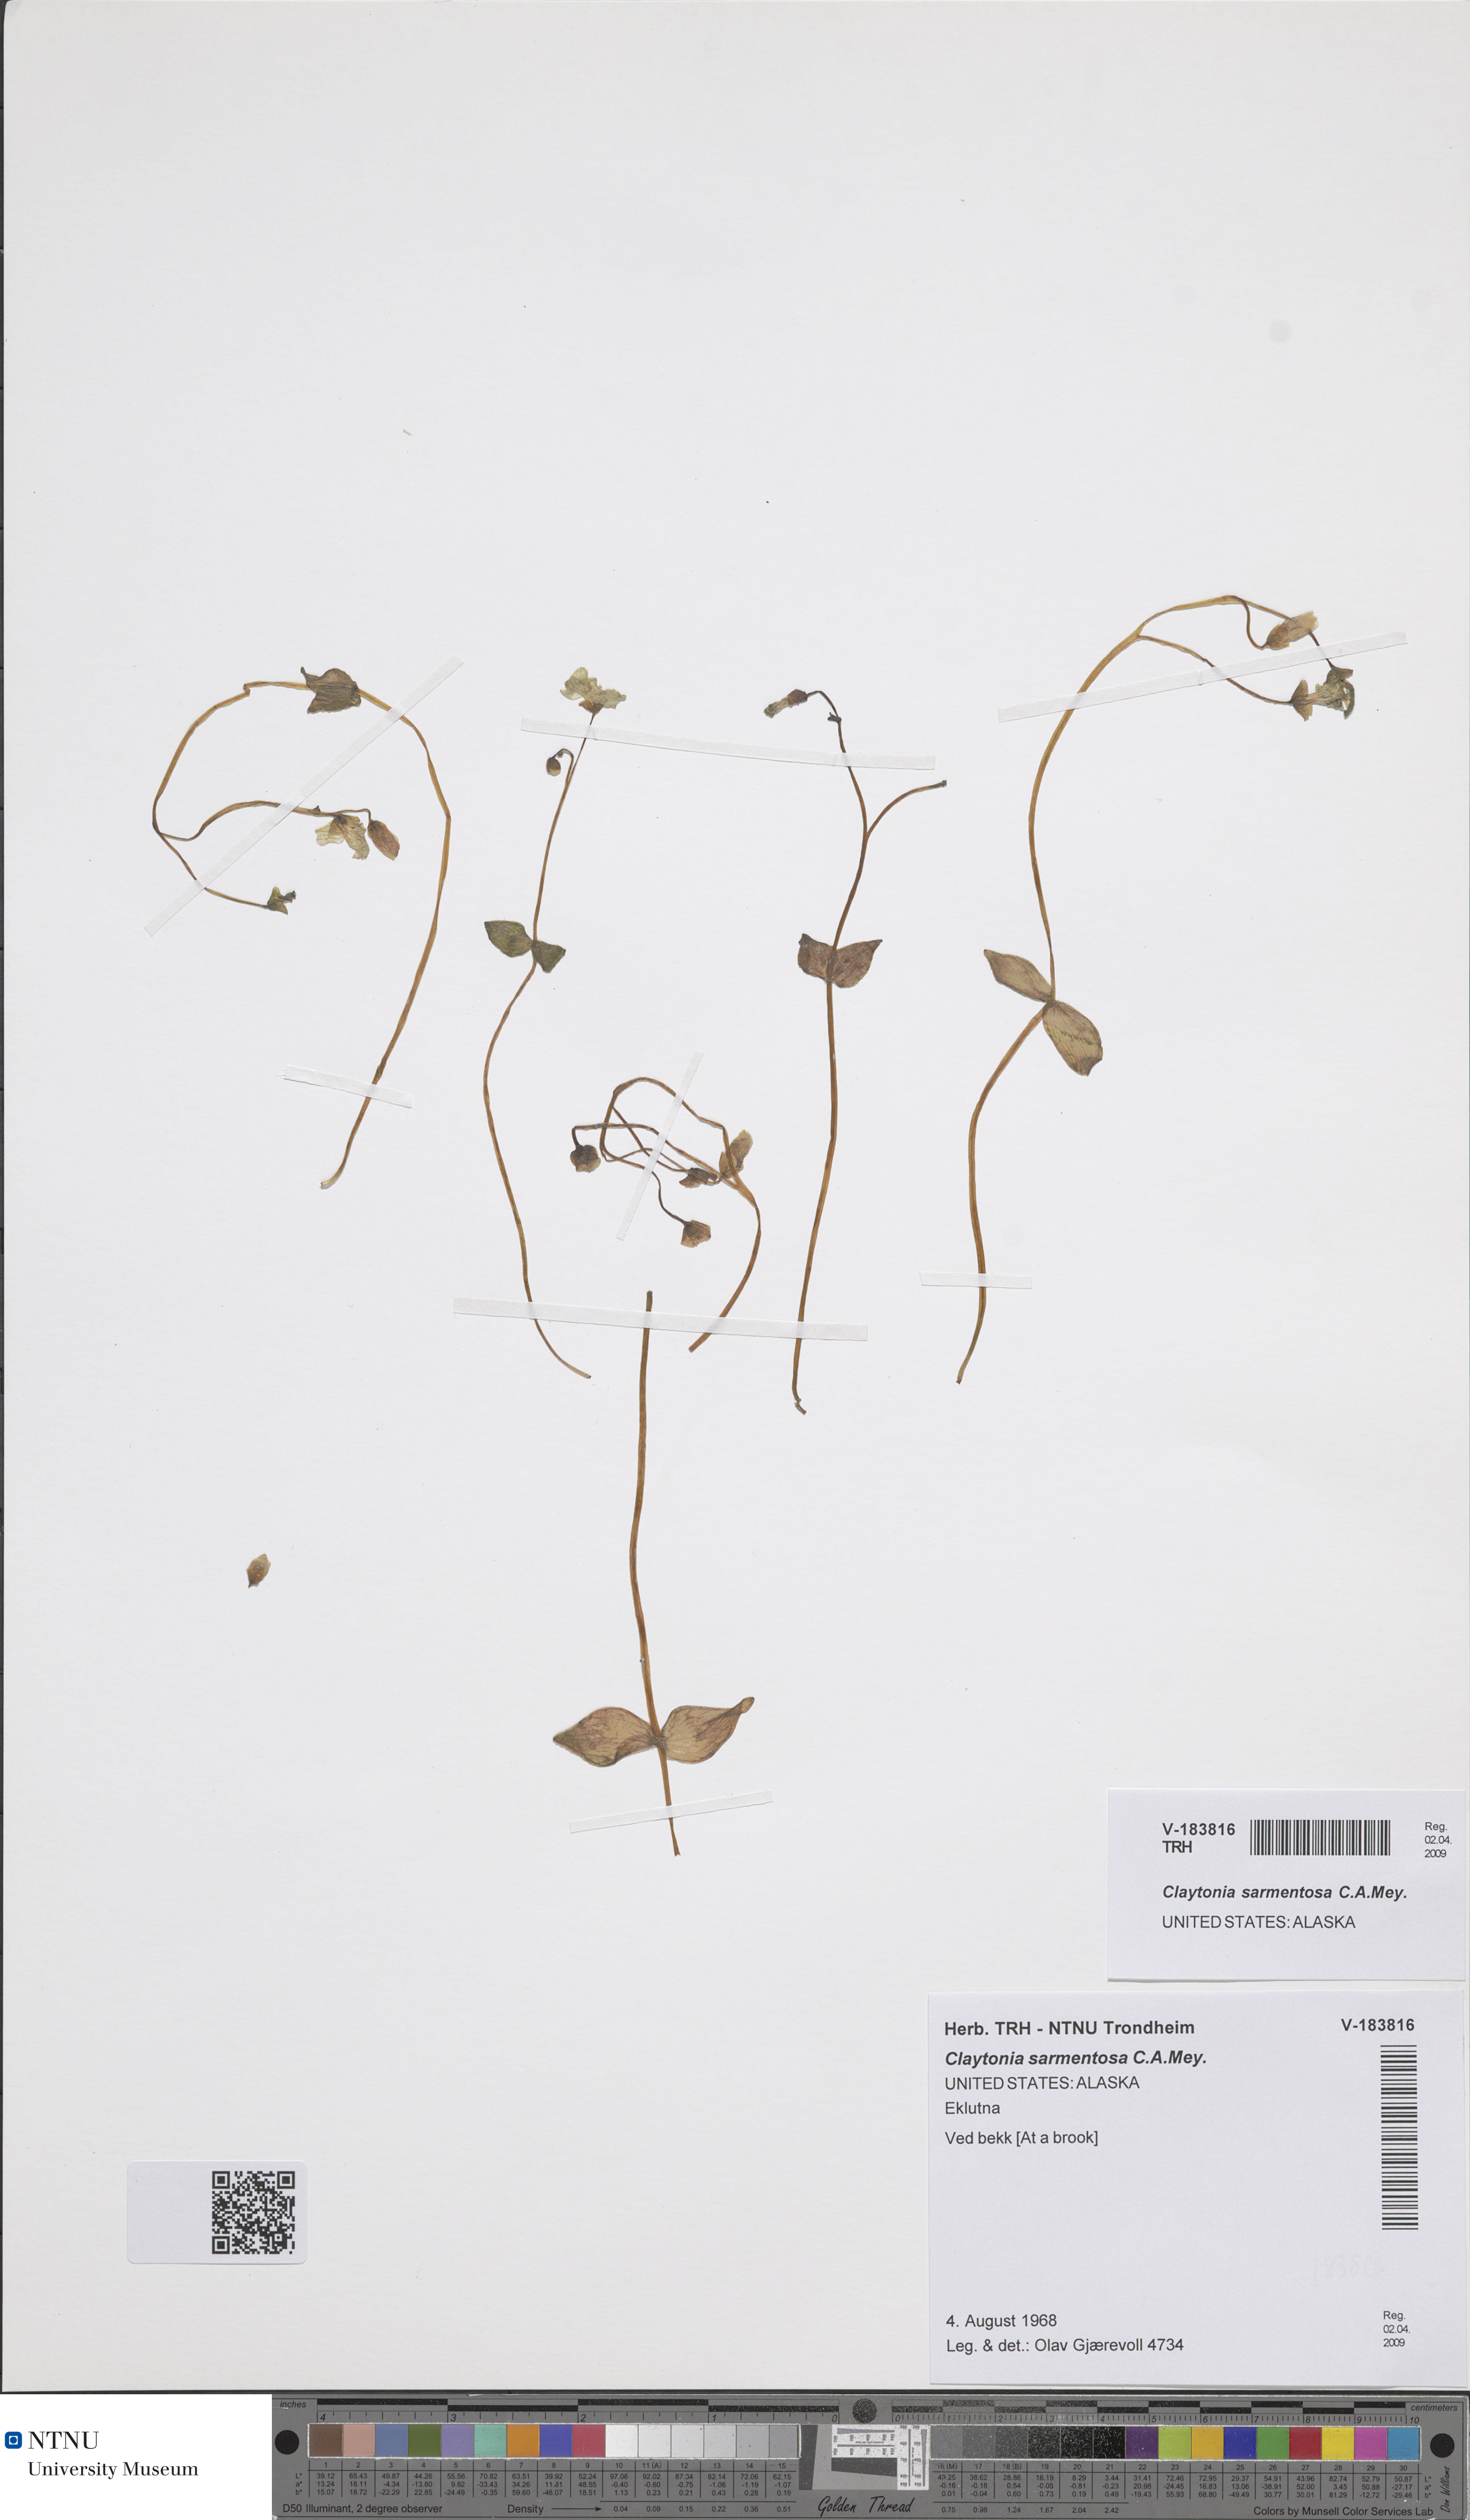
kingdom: Plantae
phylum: Tracheophyta
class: Magnoliopsida
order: Caryophyllales
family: Montiaceae
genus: Claytonia
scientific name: Claytonia sarmentosa
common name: Alaska spring beauty
